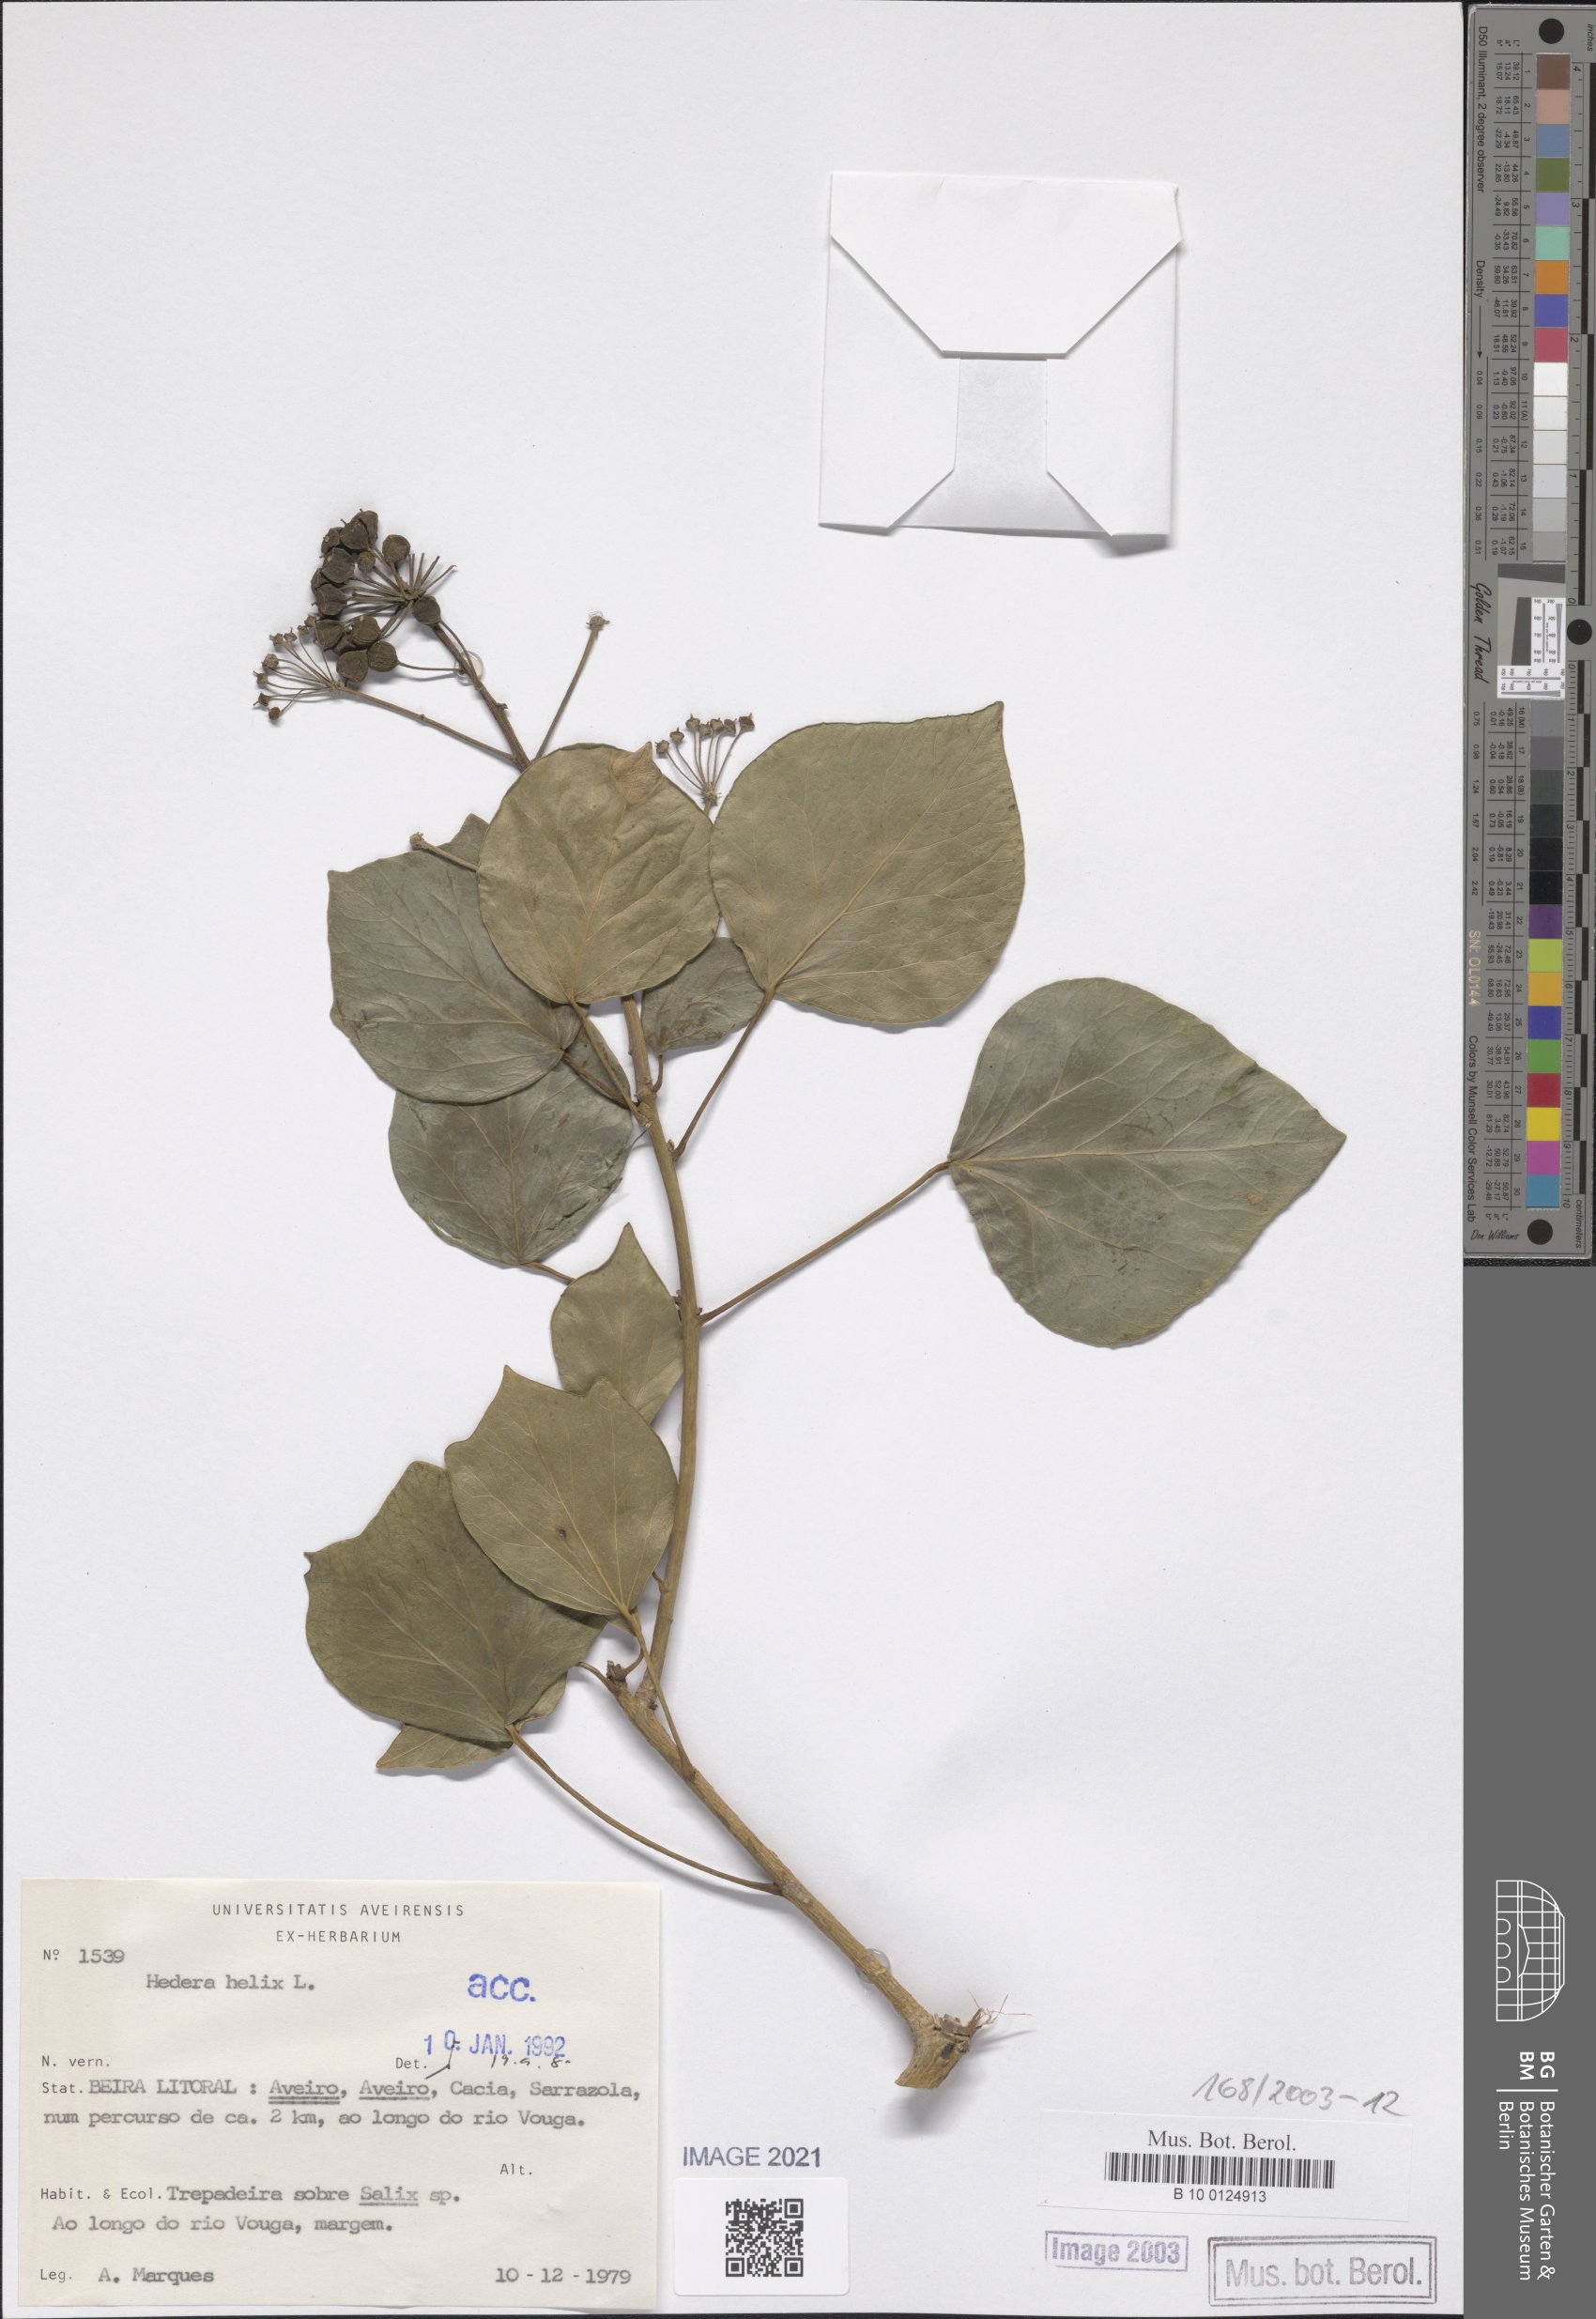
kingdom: Plantae
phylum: Tracheophyta
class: Magnoliopsida
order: Apiales
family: Araliaceae
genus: Hedera
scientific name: Hedera helix
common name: Ivy
